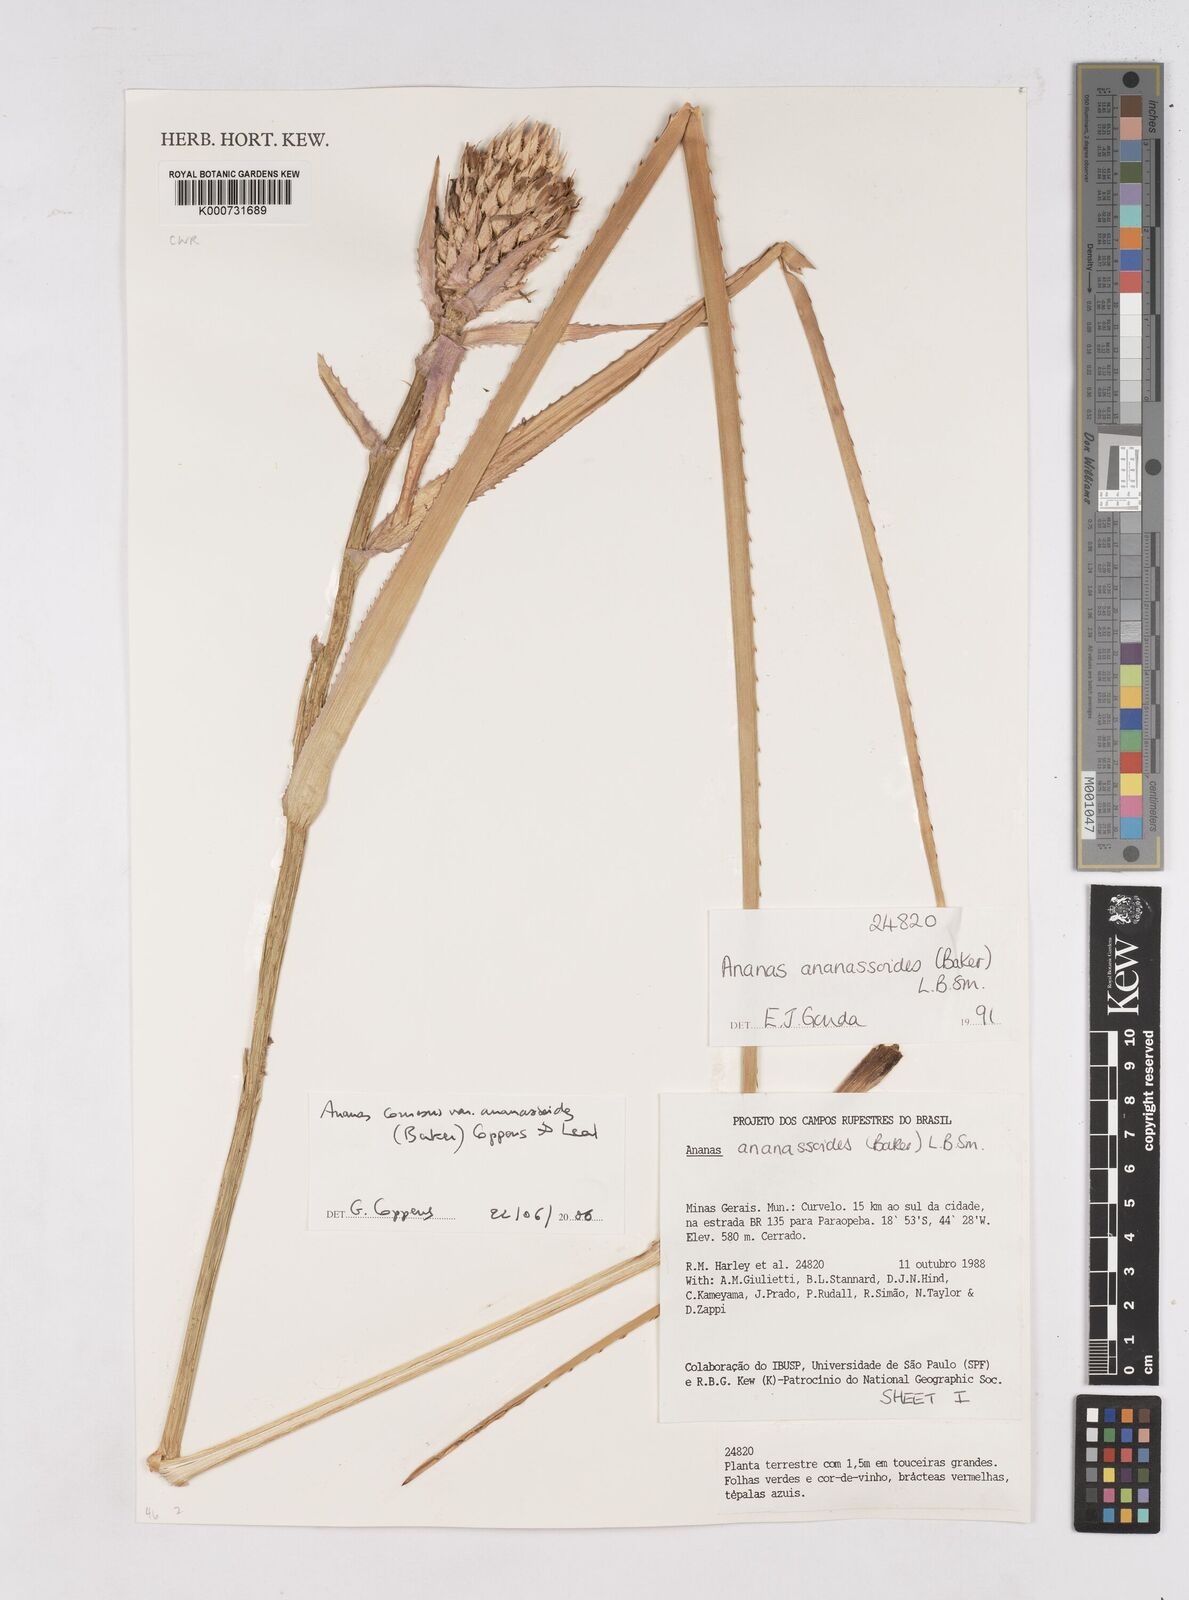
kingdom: Plantae
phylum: Tracheophyta
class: Liliopsida
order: Poales
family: Bromeliaceae
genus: Ananas
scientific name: Ananas comosus
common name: Pineapple
